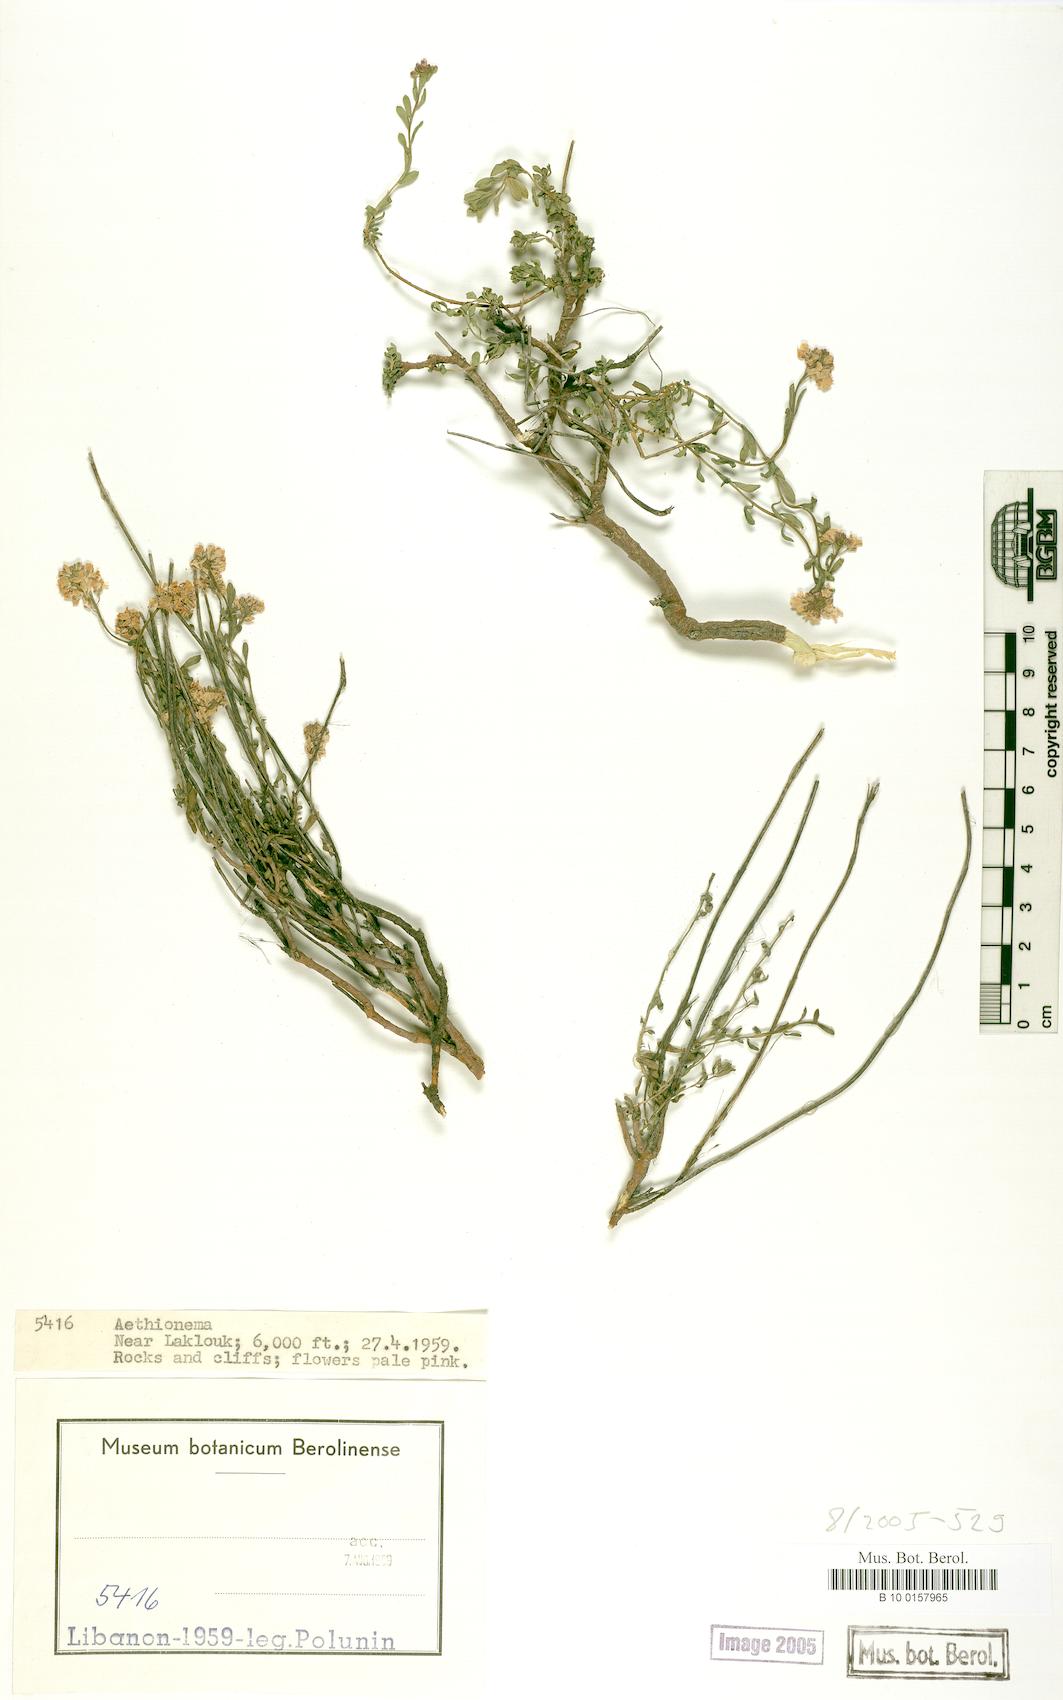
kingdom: Plantae
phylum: Tracheophyta
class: Magnoliopsida
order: Brassicales
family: Brassicaceae
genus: Aethionema
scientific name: Aethionema
